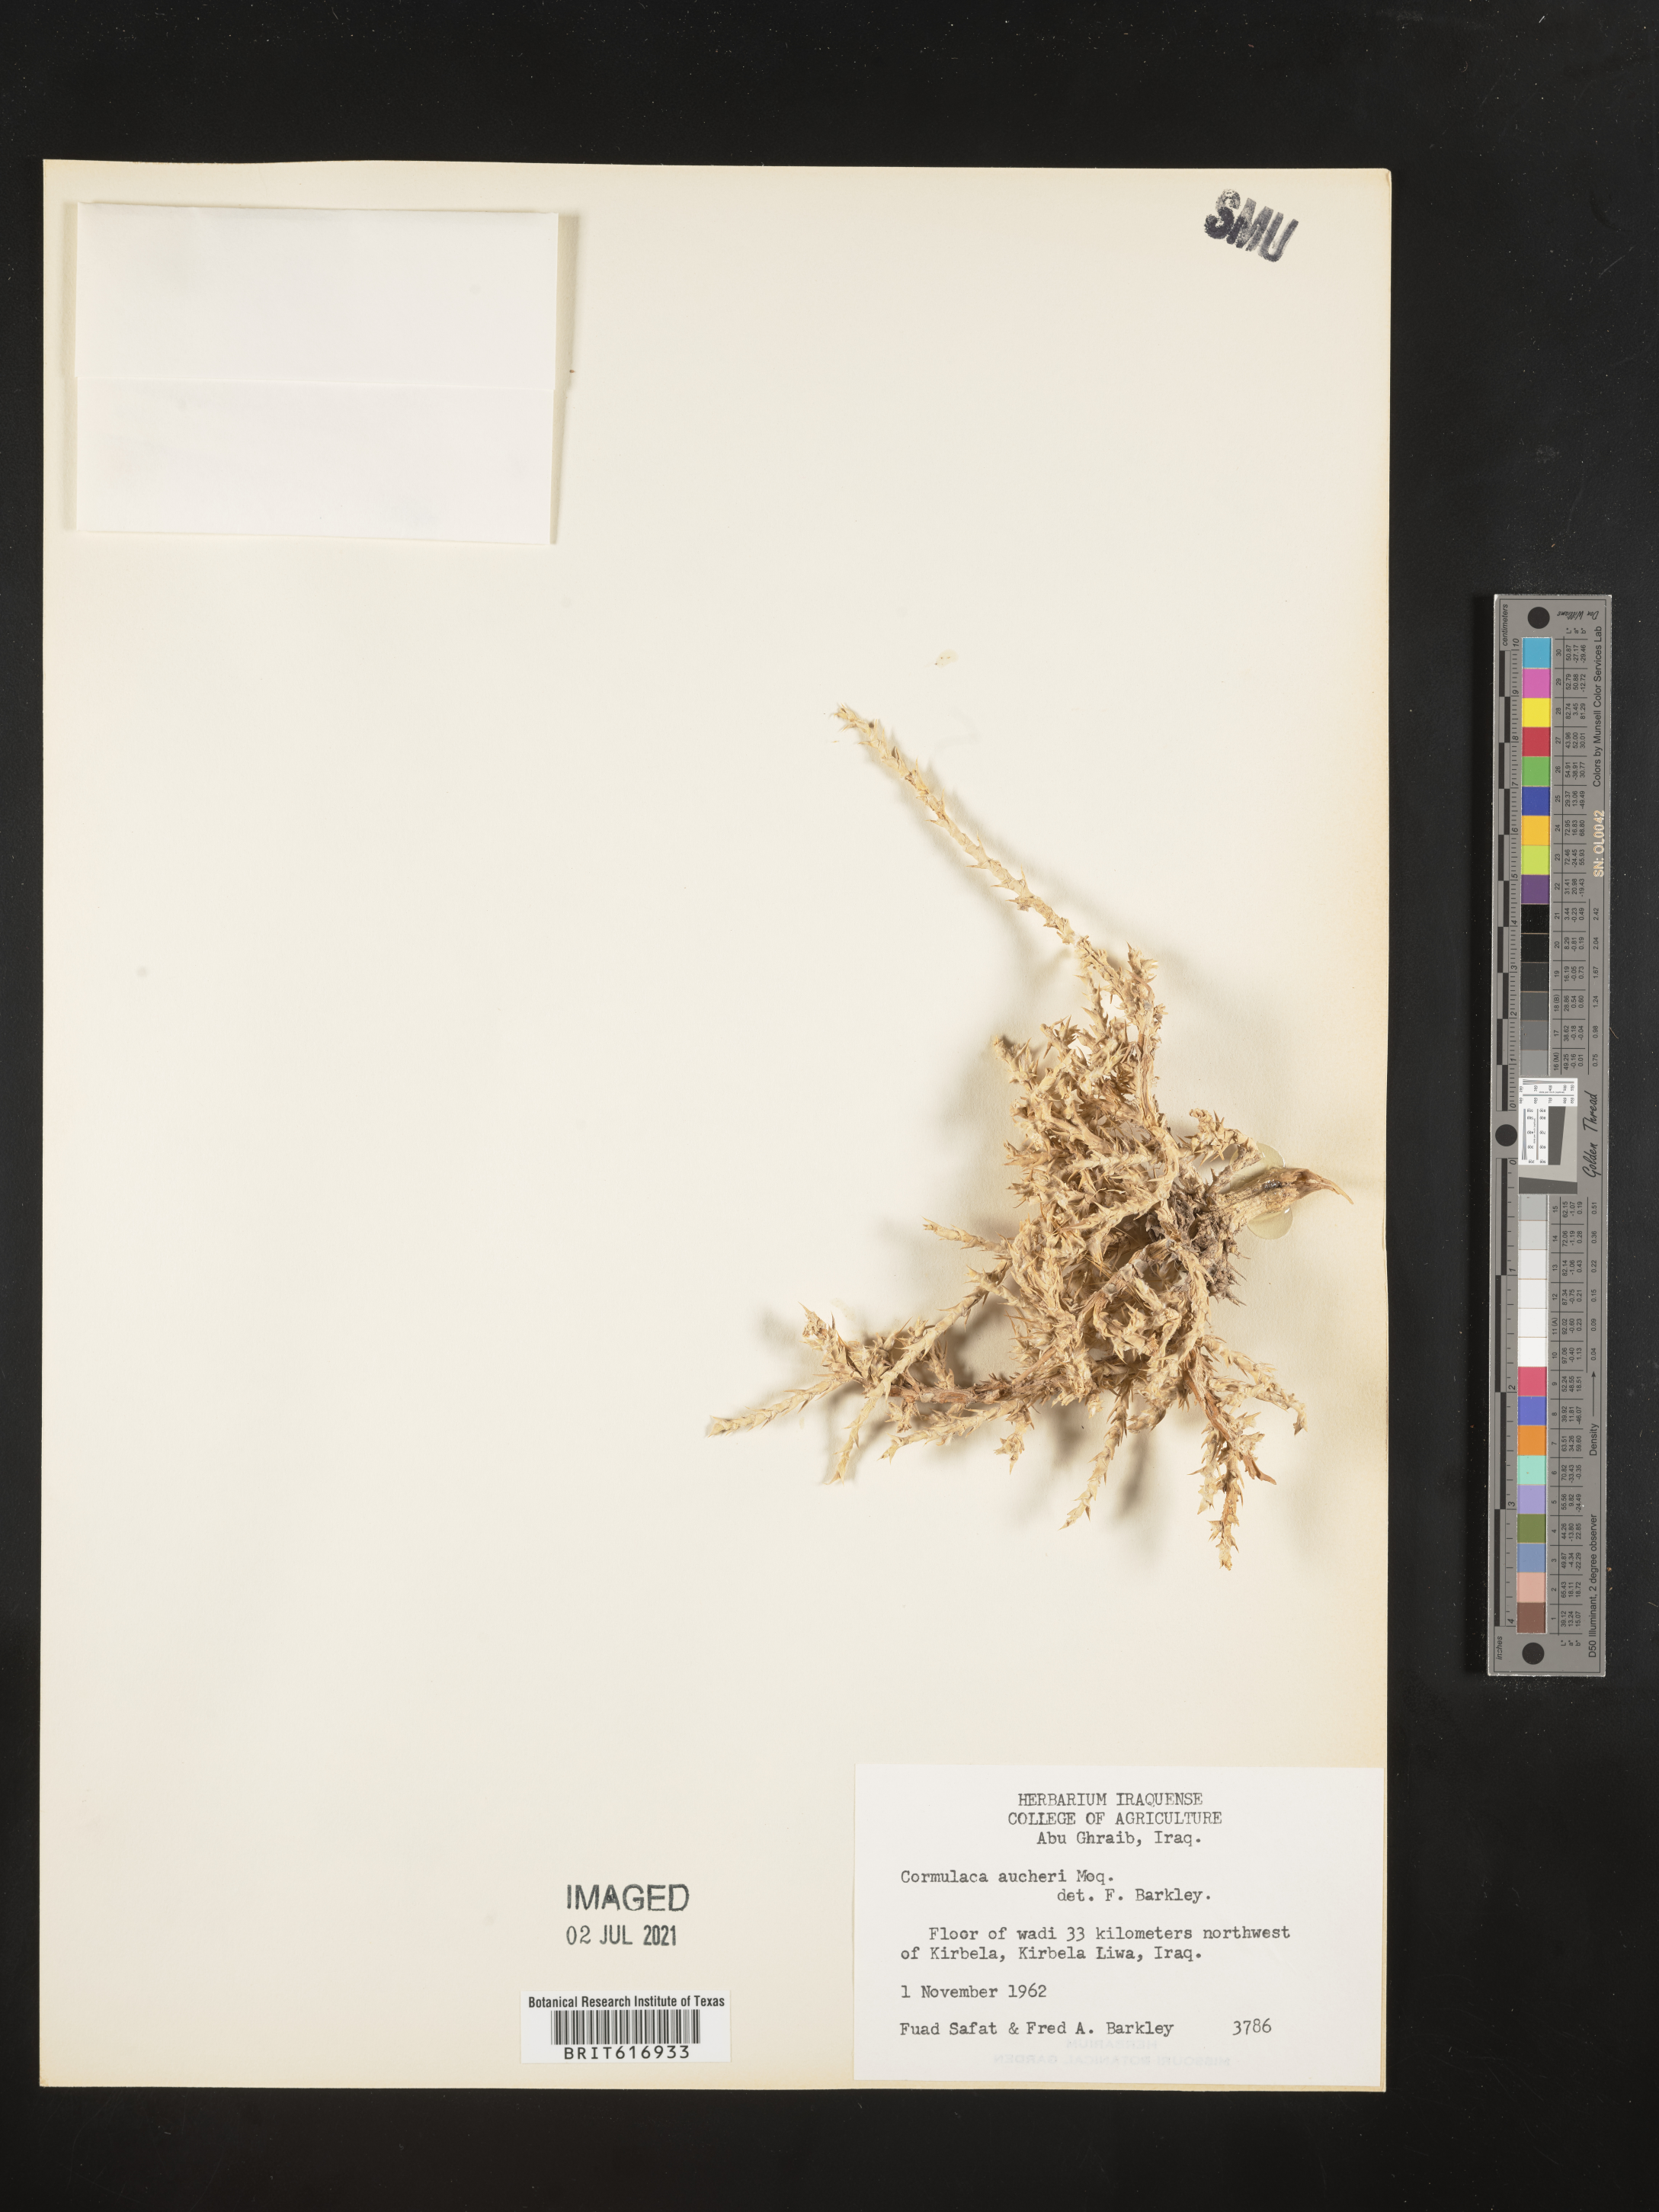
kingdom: Plantae
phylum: Tracheophyta
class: Magnoliopsida
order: Caryophyllales
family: Amaranthaceae
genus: Cornulaca
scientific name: Cornulaca aucheri
